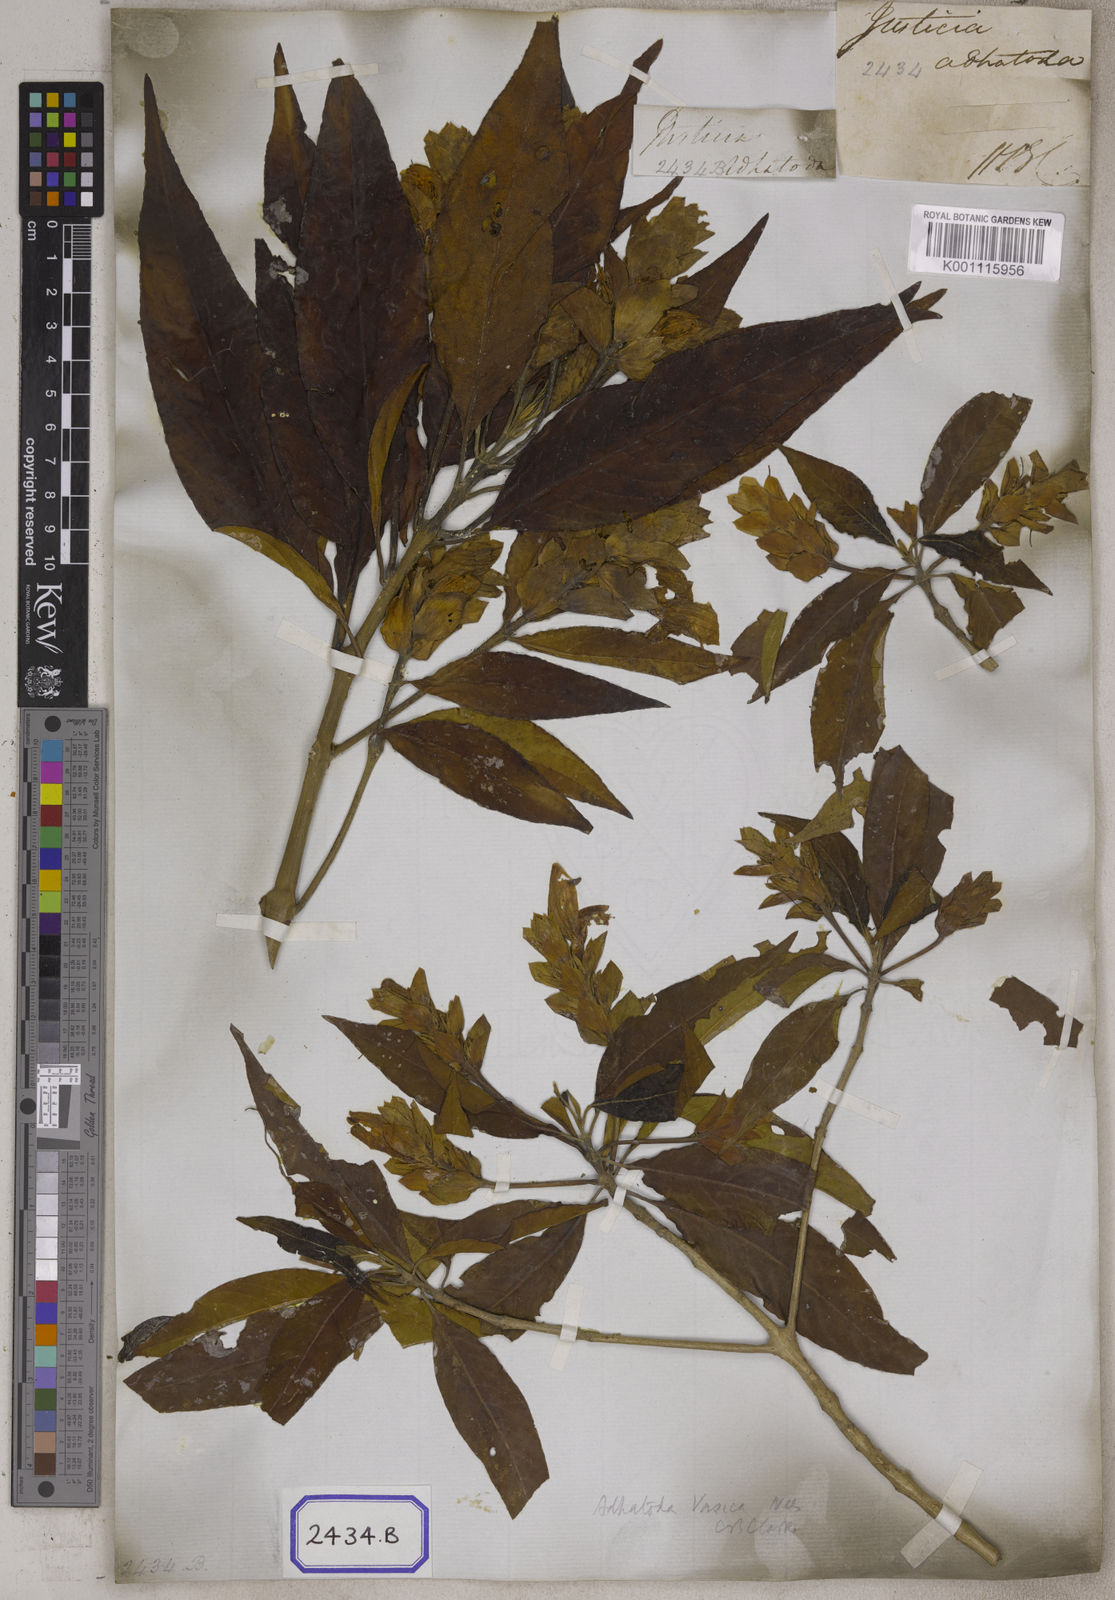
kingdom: Plantae
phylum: Tracheophyta
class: Magnoliopsida
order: Lamiales
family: Acanthaceae
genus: Justicia
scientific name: Justicia adhatoda
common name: Malabar nut
